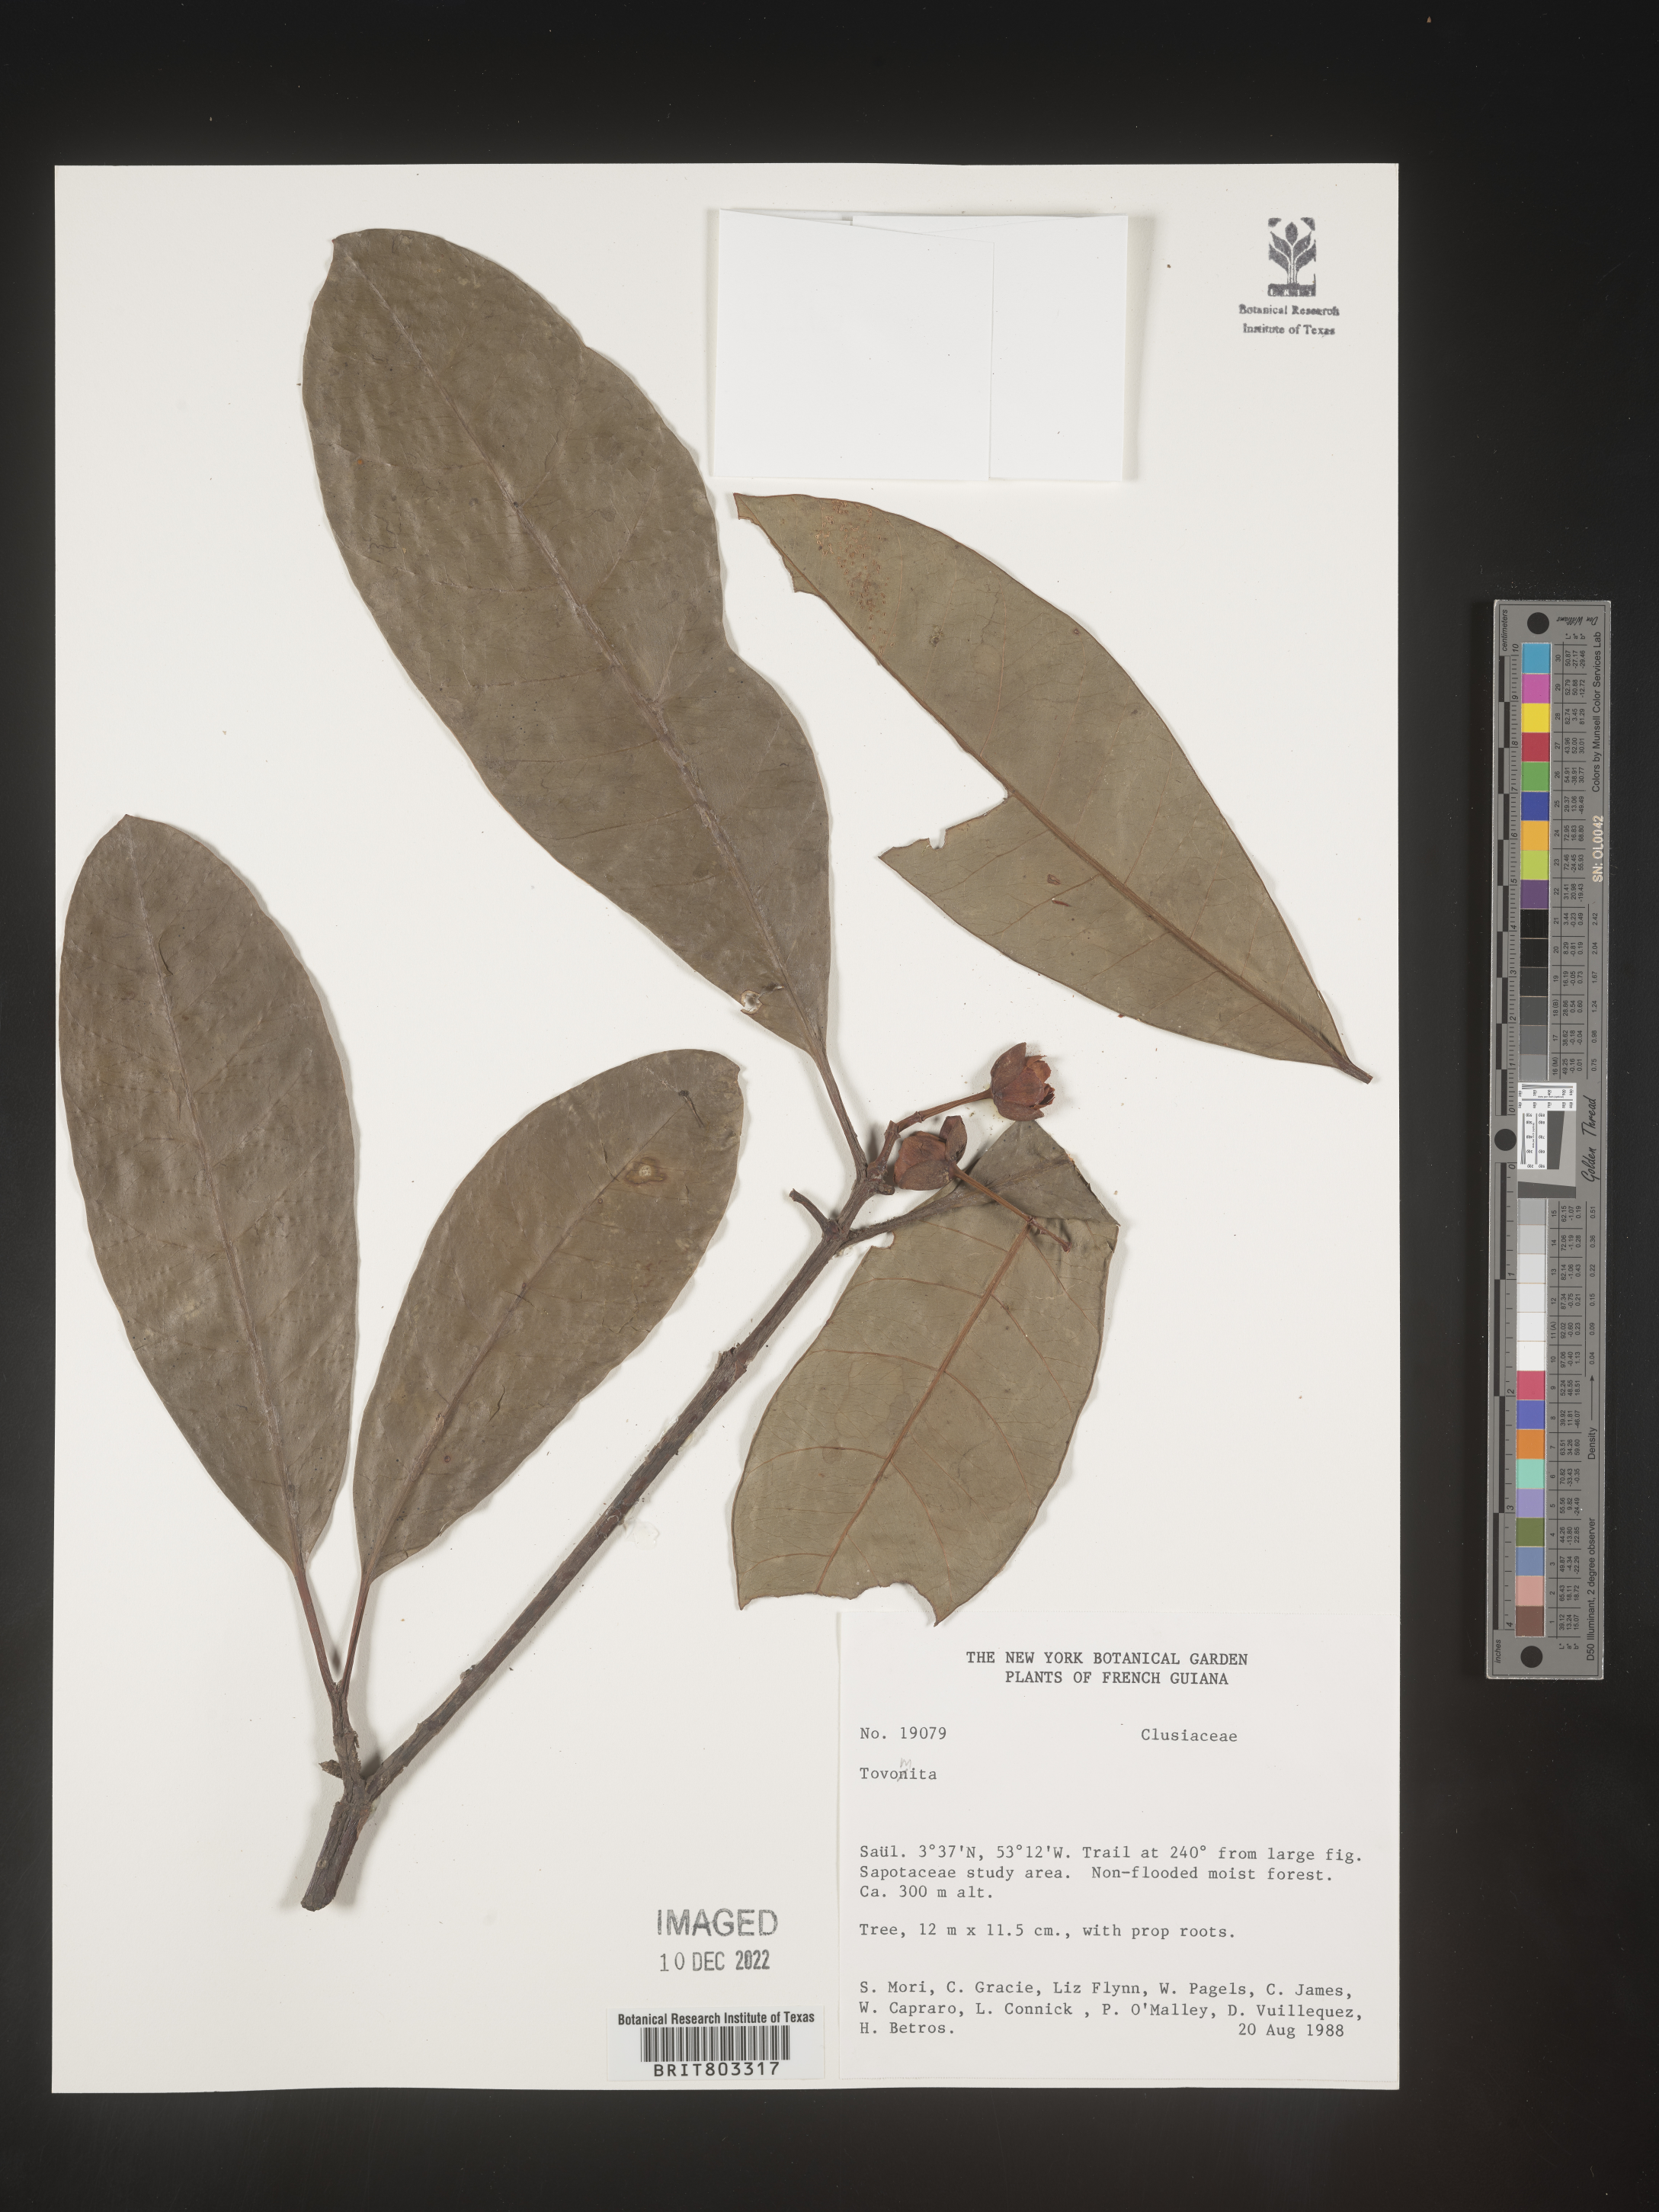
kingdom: Plantae
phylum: Tracheophyta
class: Magnoliopsida
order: Malpighiales
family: Clusiaceae
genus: Tovomita
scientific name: Tovomita
